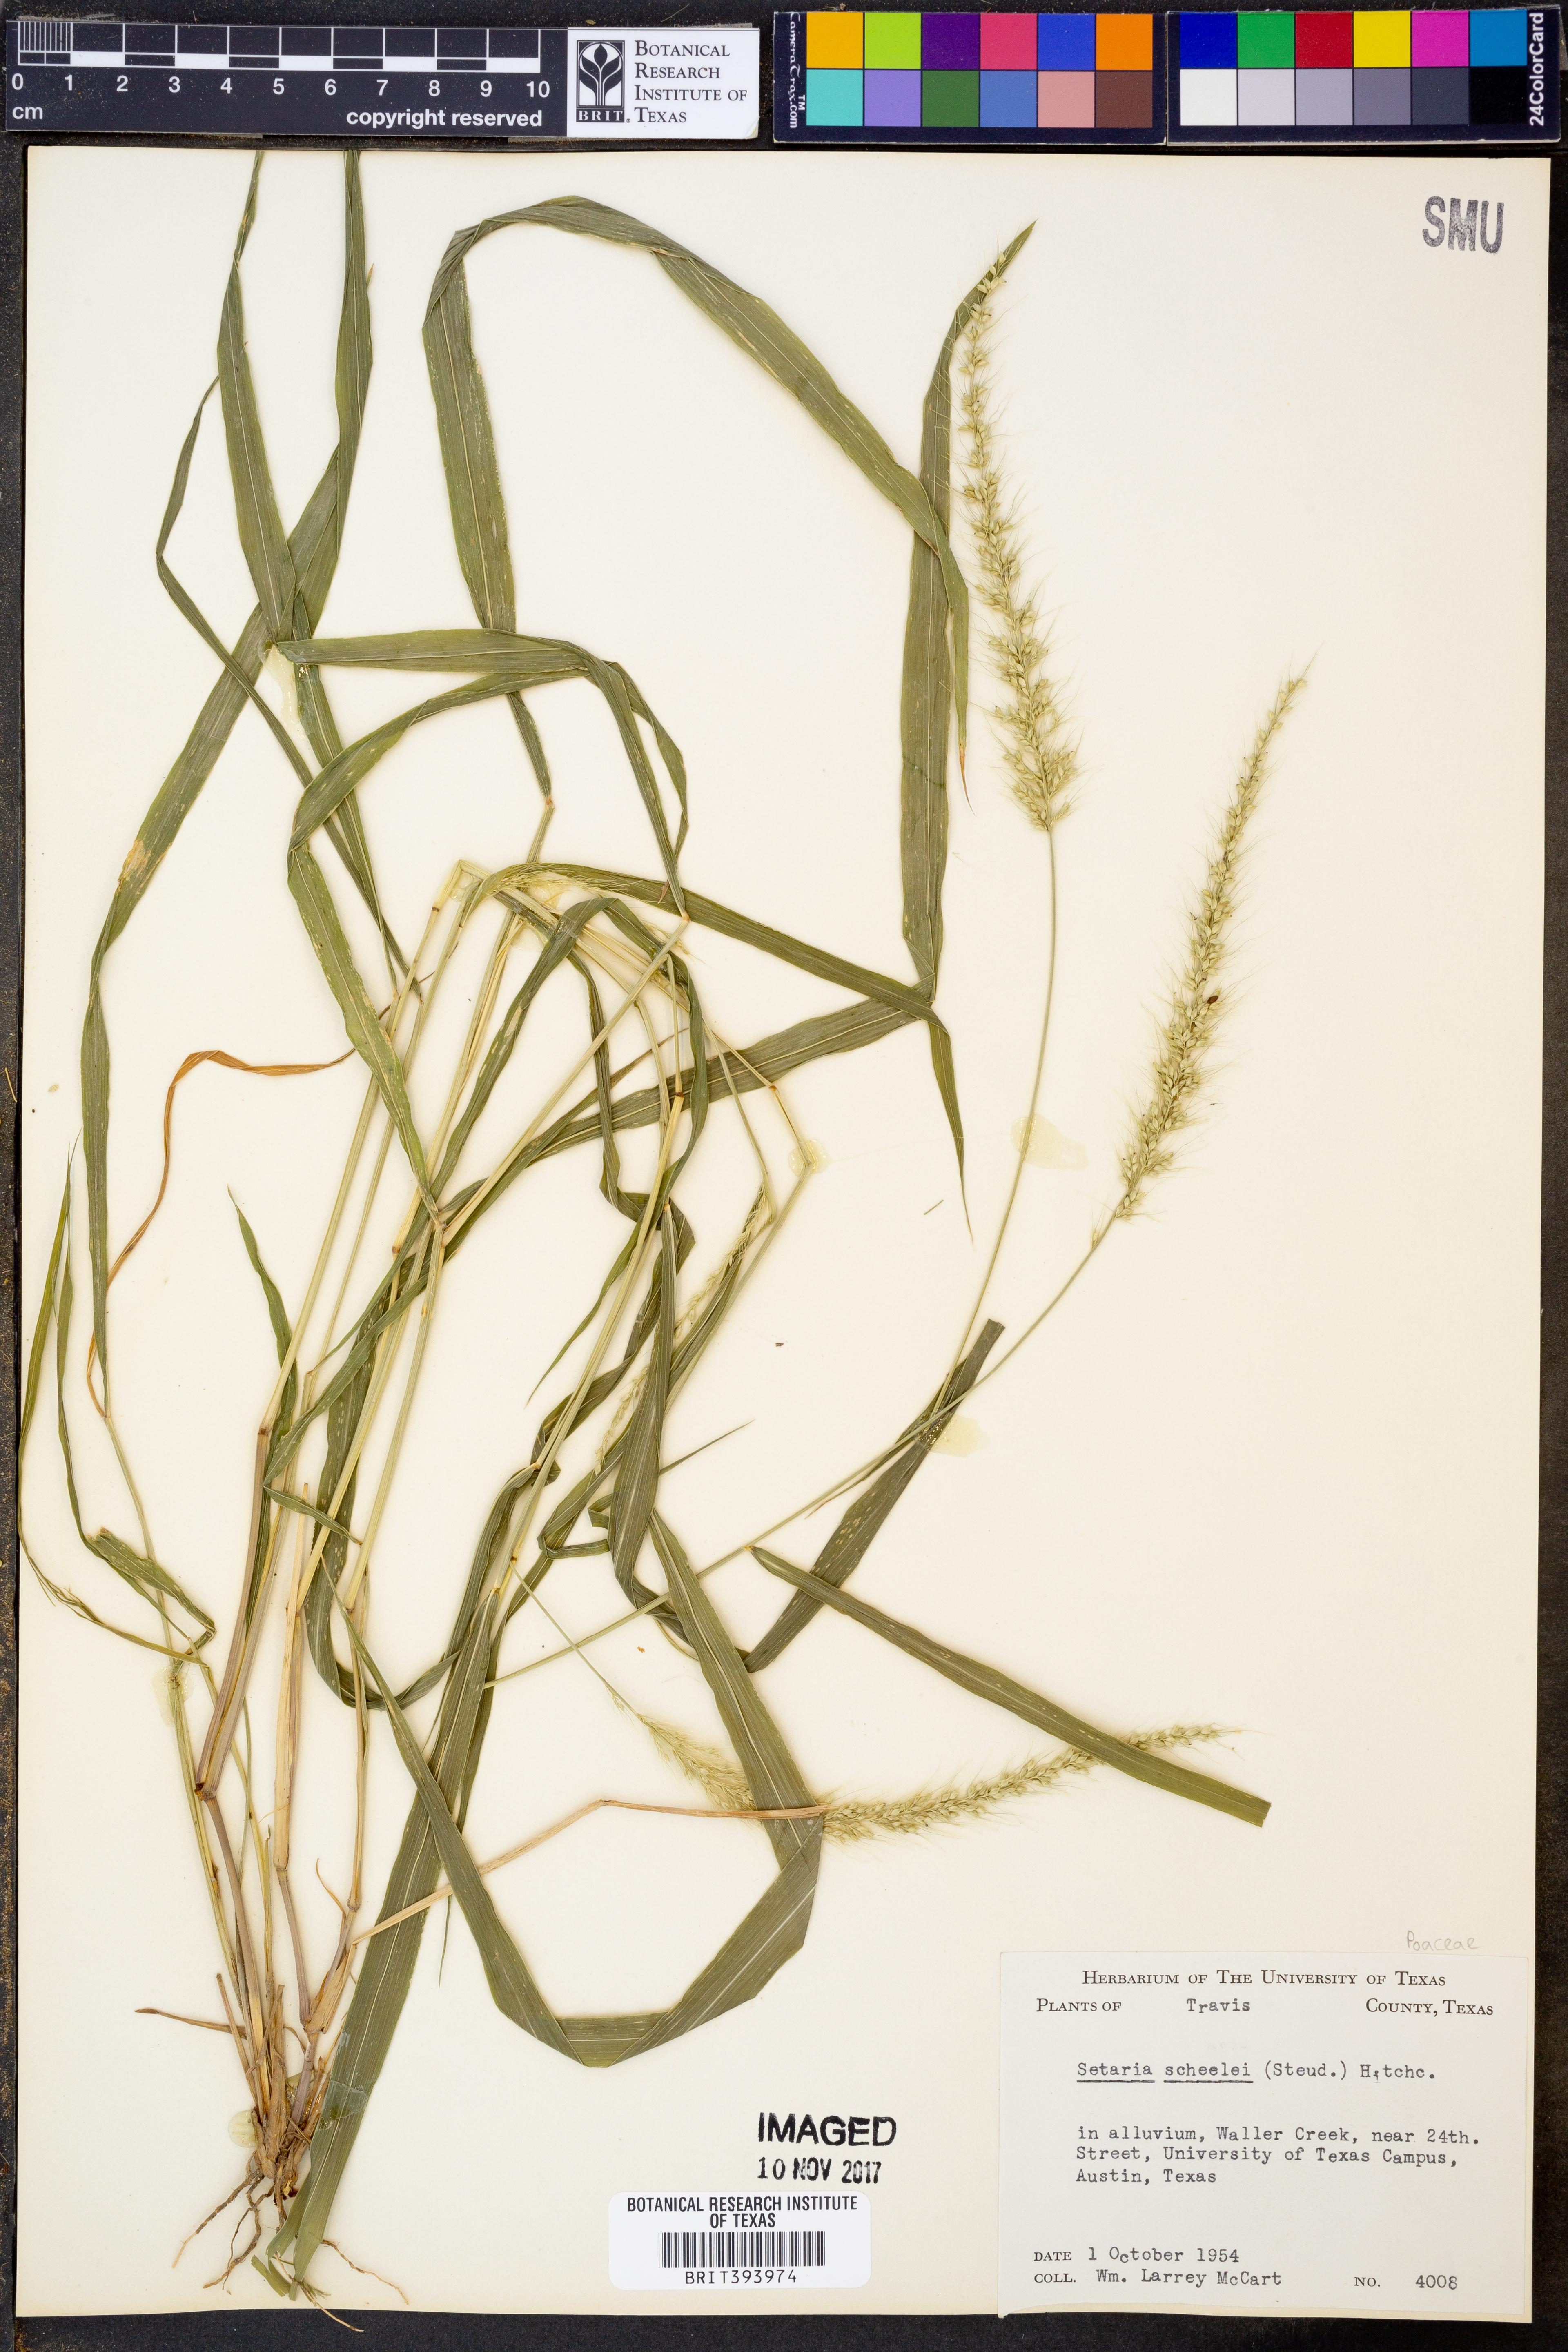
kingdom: Plantae
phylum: Tracheophyta
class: Liliopsida
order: Poales
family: Poaceae
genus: Setaria
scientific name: Setaria scheelei
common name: Southwestern bristle grass
